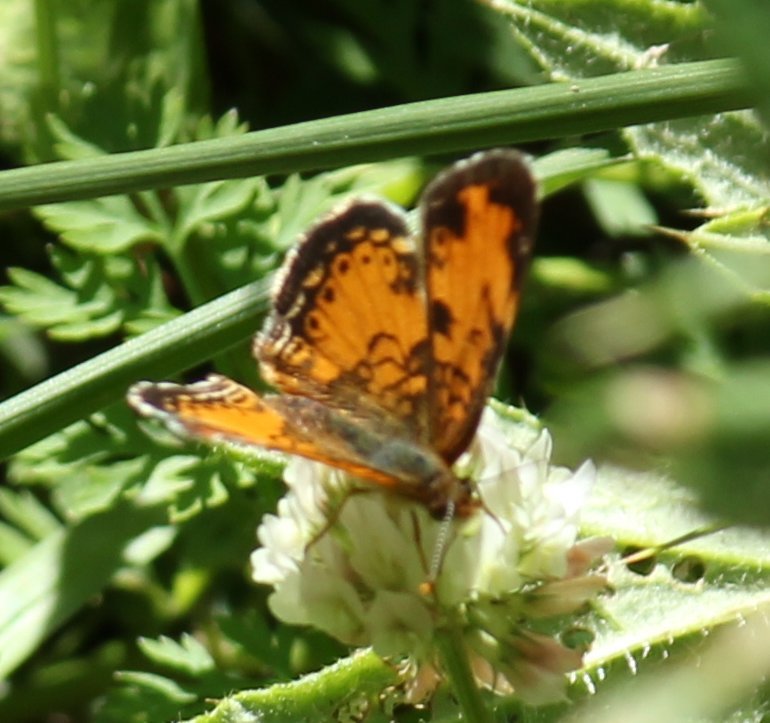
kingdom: Animalia
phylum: Arthropoda
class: Insecta
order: Lepidoptera
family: Nymphalidae
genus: Phyciodes
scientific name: Phyciodes tharos
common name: Northern Crescent
